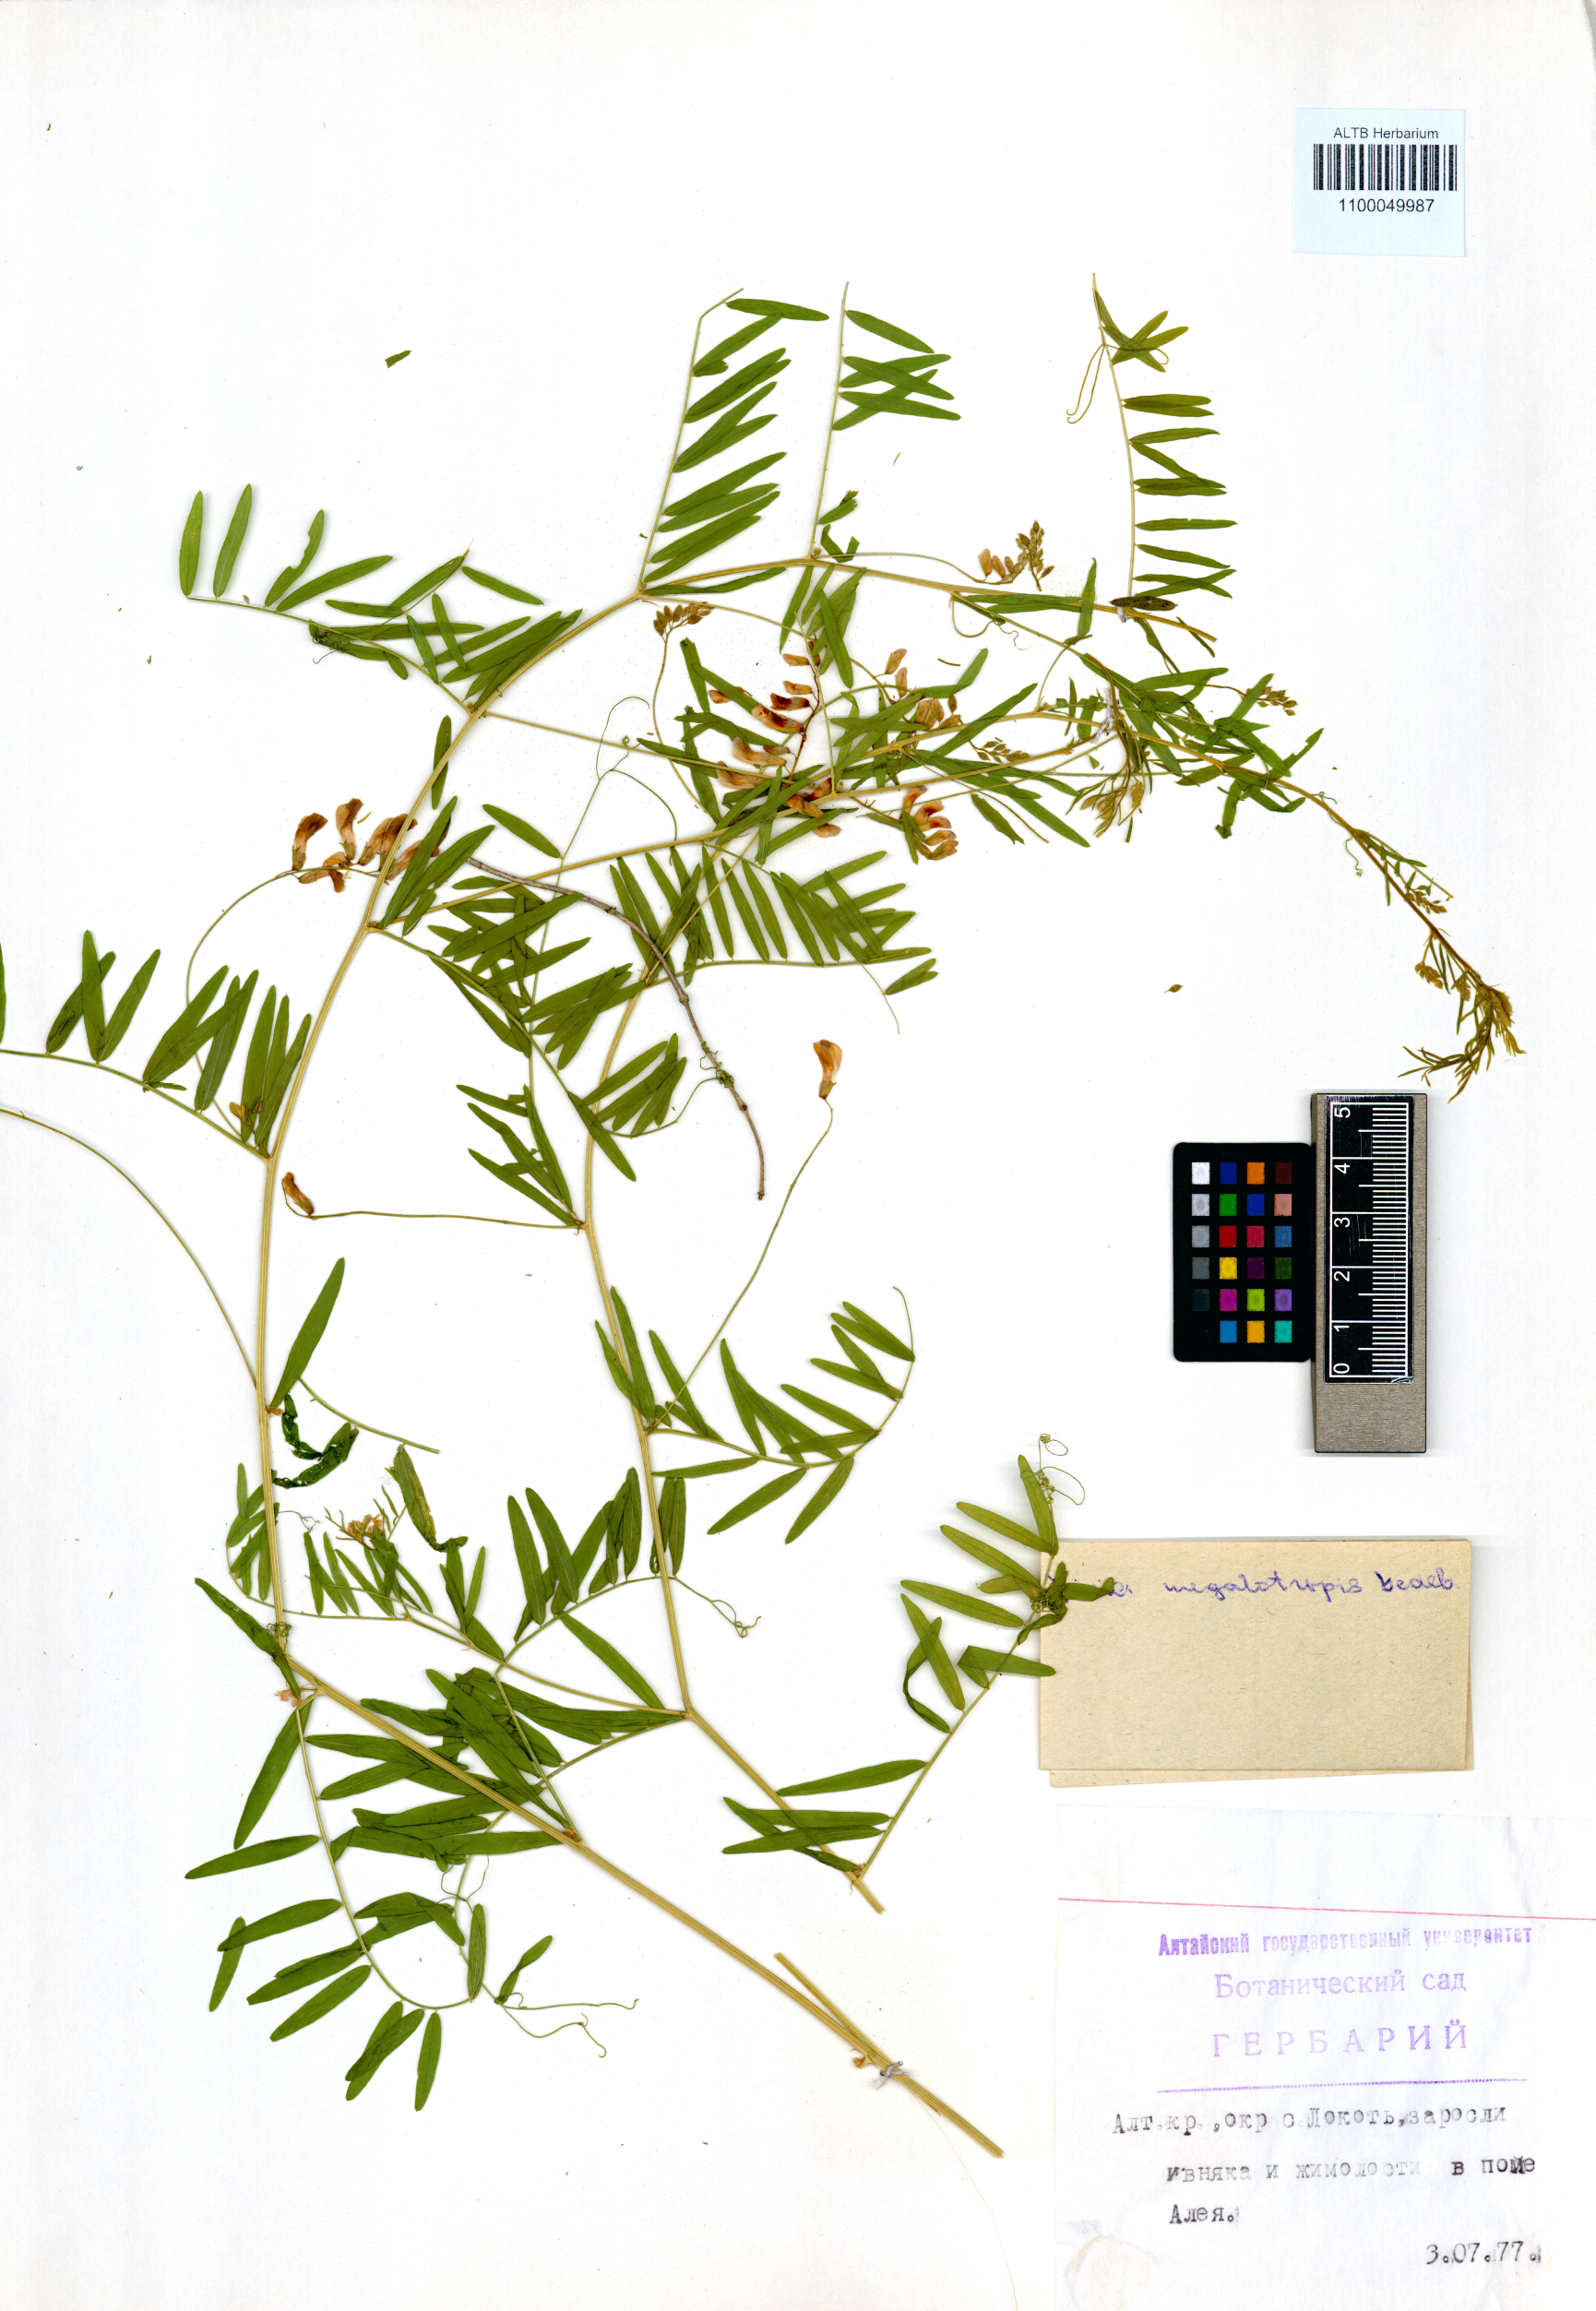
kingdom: Plantae
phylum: Tracheophyta
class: Magnoliopsida
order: Fabales
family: Fabaceae
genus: Vicia
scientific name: Vicia megalotropis
